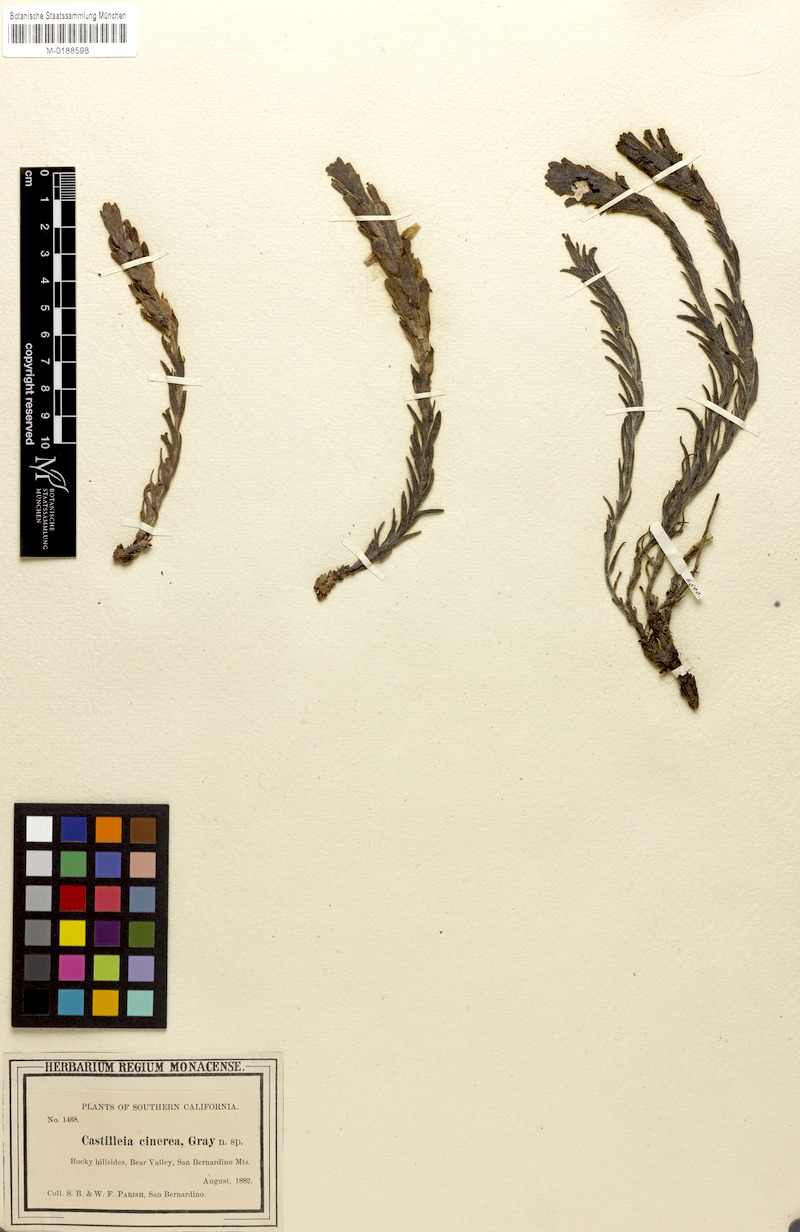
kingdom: Plantae
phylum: Tracheophyta
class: Magnoliopsida
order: Lamiales
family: Orobanchaceae
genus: Castilleja
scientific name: Castilleja cinerea
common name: Ash-gray indian paintbrush
